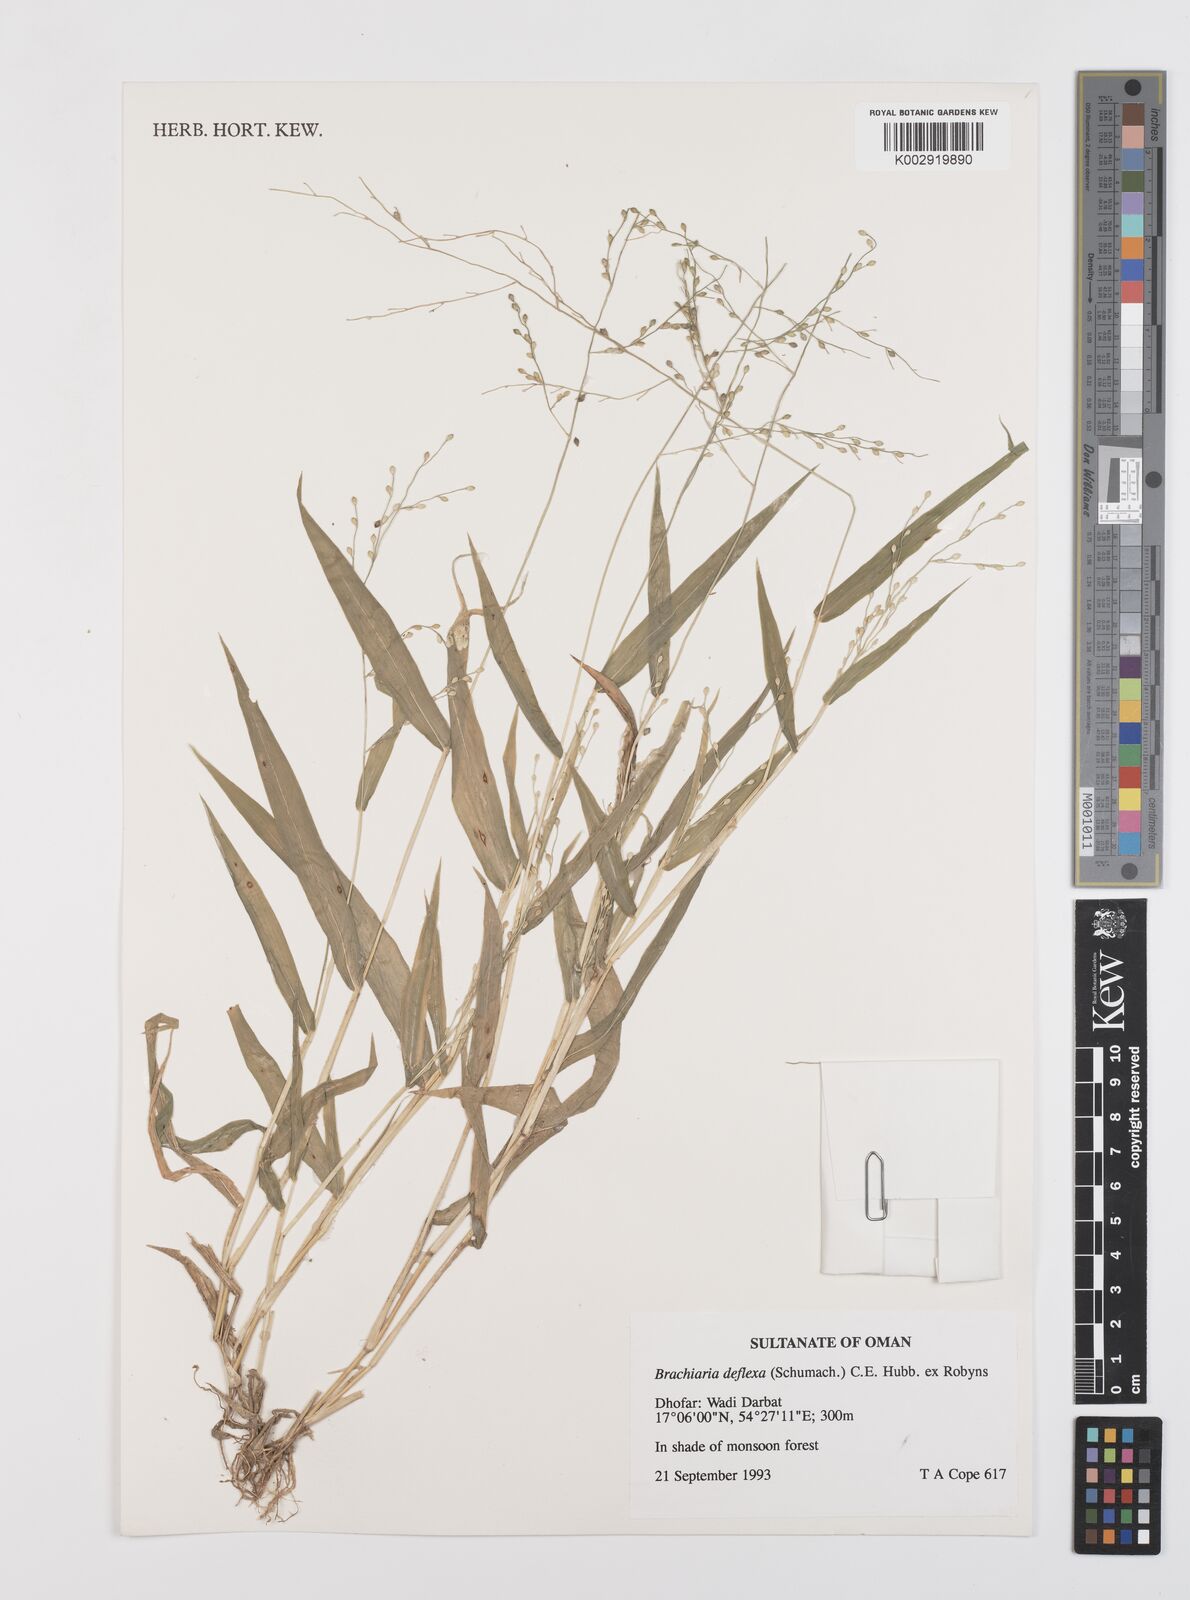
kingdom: Plantae
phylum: Tracheophyta
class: Liliopsida
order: Poales
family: Poaceae
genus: Urochloa
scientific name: Urochloa deflexa
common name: Guinea millet
